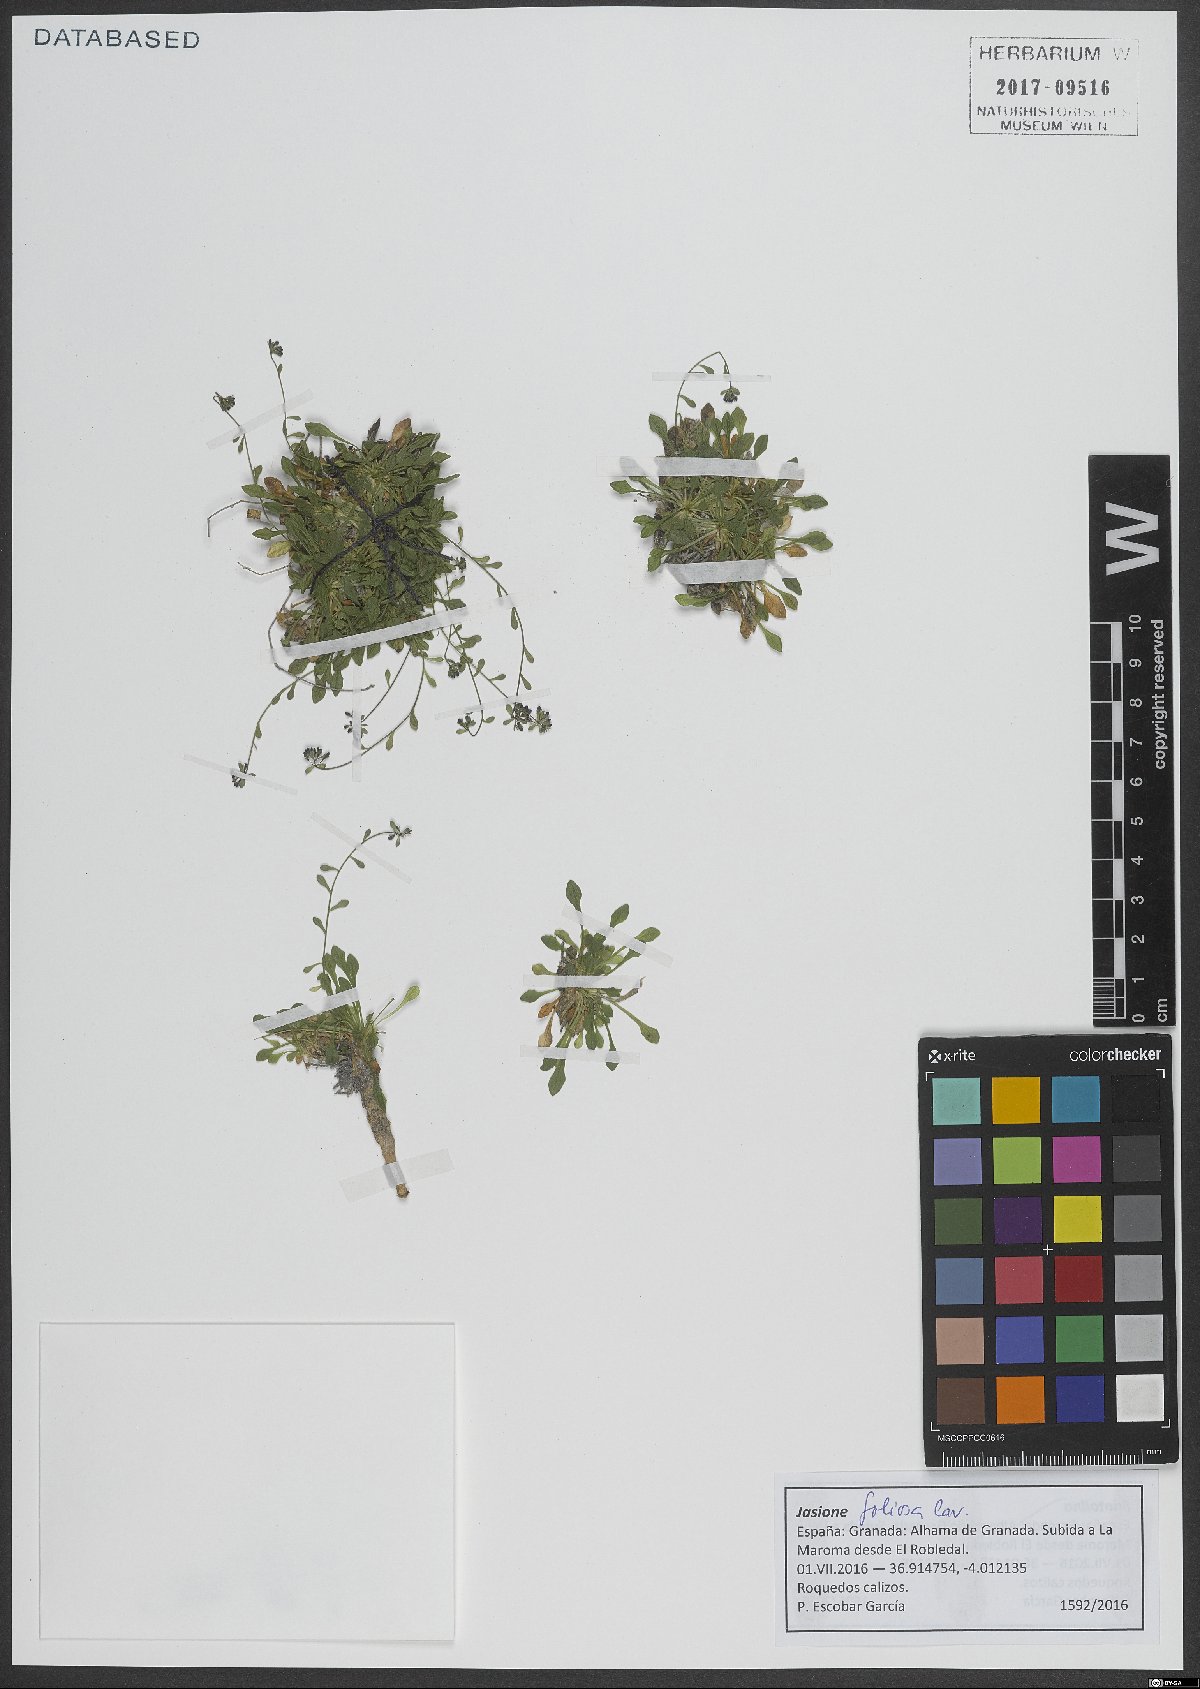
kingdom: Plantae
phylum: Tracheophyta
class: Magnoliopsida
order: Asterales
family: Campanulaceae
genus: Jasione
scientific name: Jasione foliosa
